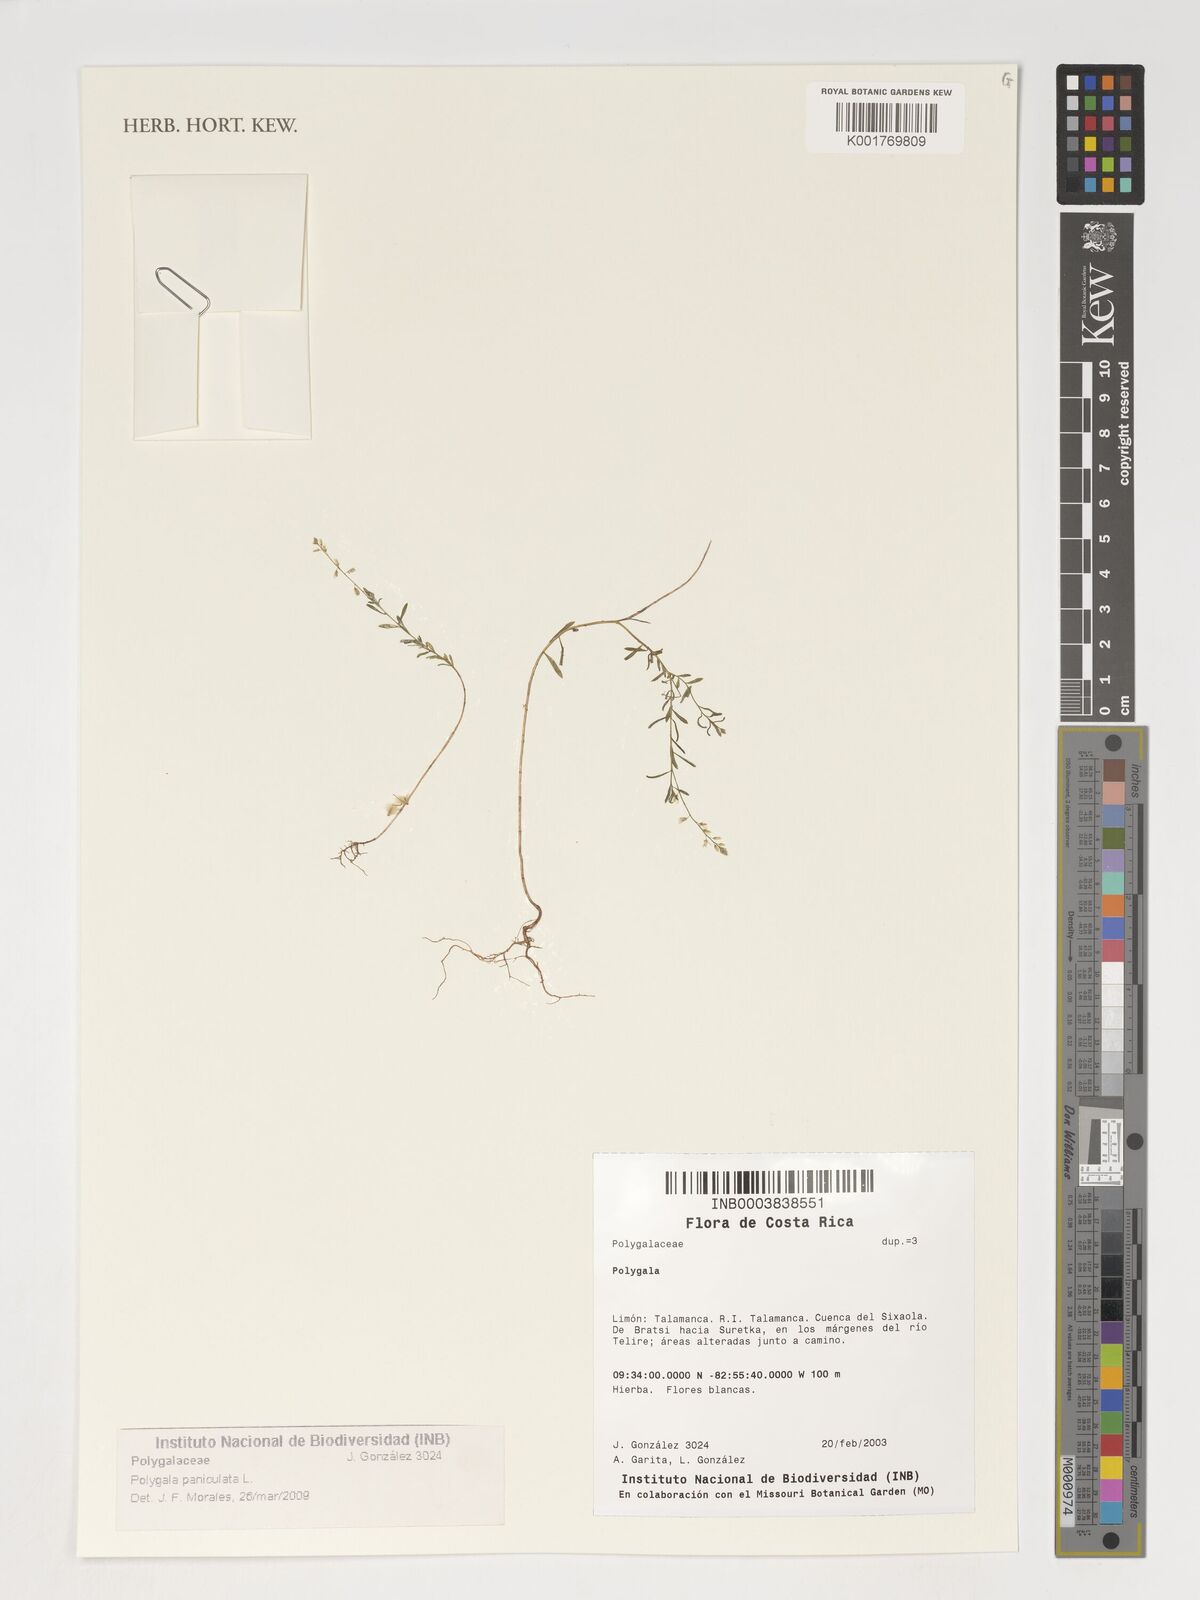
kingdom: Plantae
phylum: Tracheophyta
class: Magnoliopsida
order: Fabales
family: Polygalaceae
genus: Polygala
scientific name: Polygala paniculata
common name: Orosne
